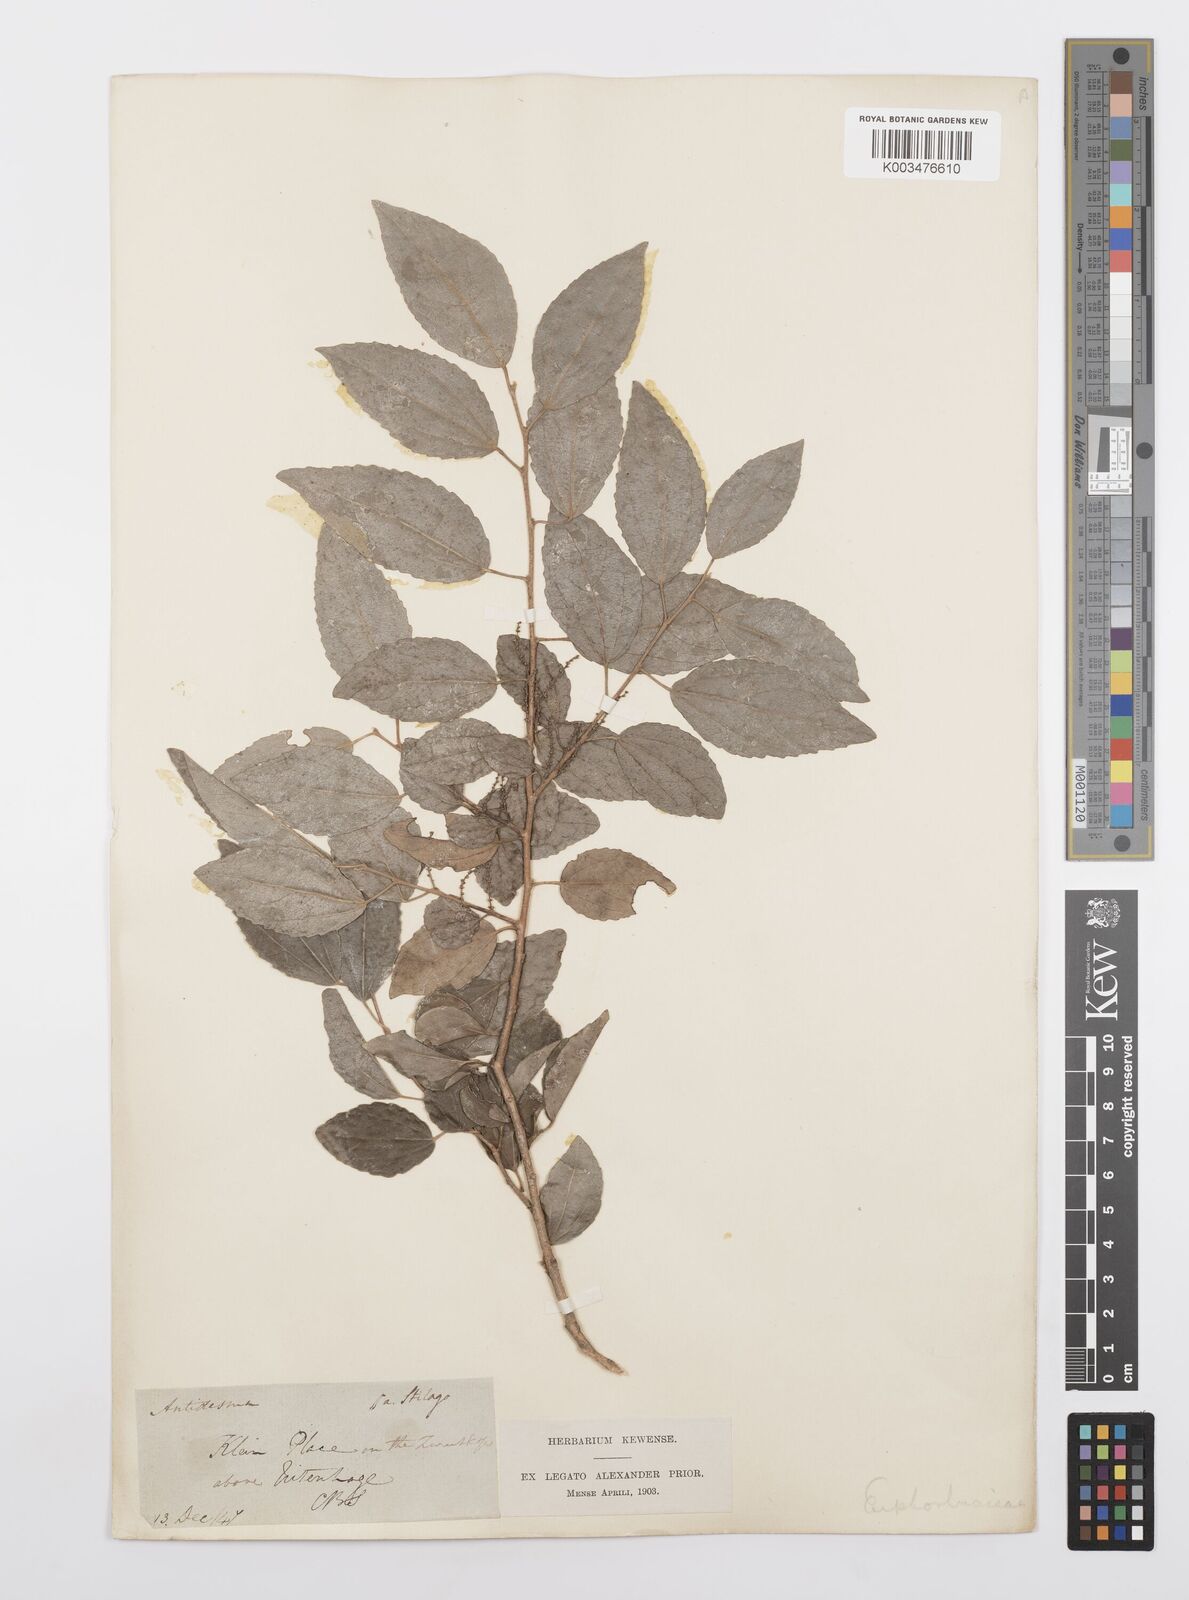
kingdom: Plantae
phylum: Tracheophyta
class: Magnoliopsida
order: Malpighiales
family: Salicaceae
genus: Trimeria
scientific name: Trimeria trinervis
